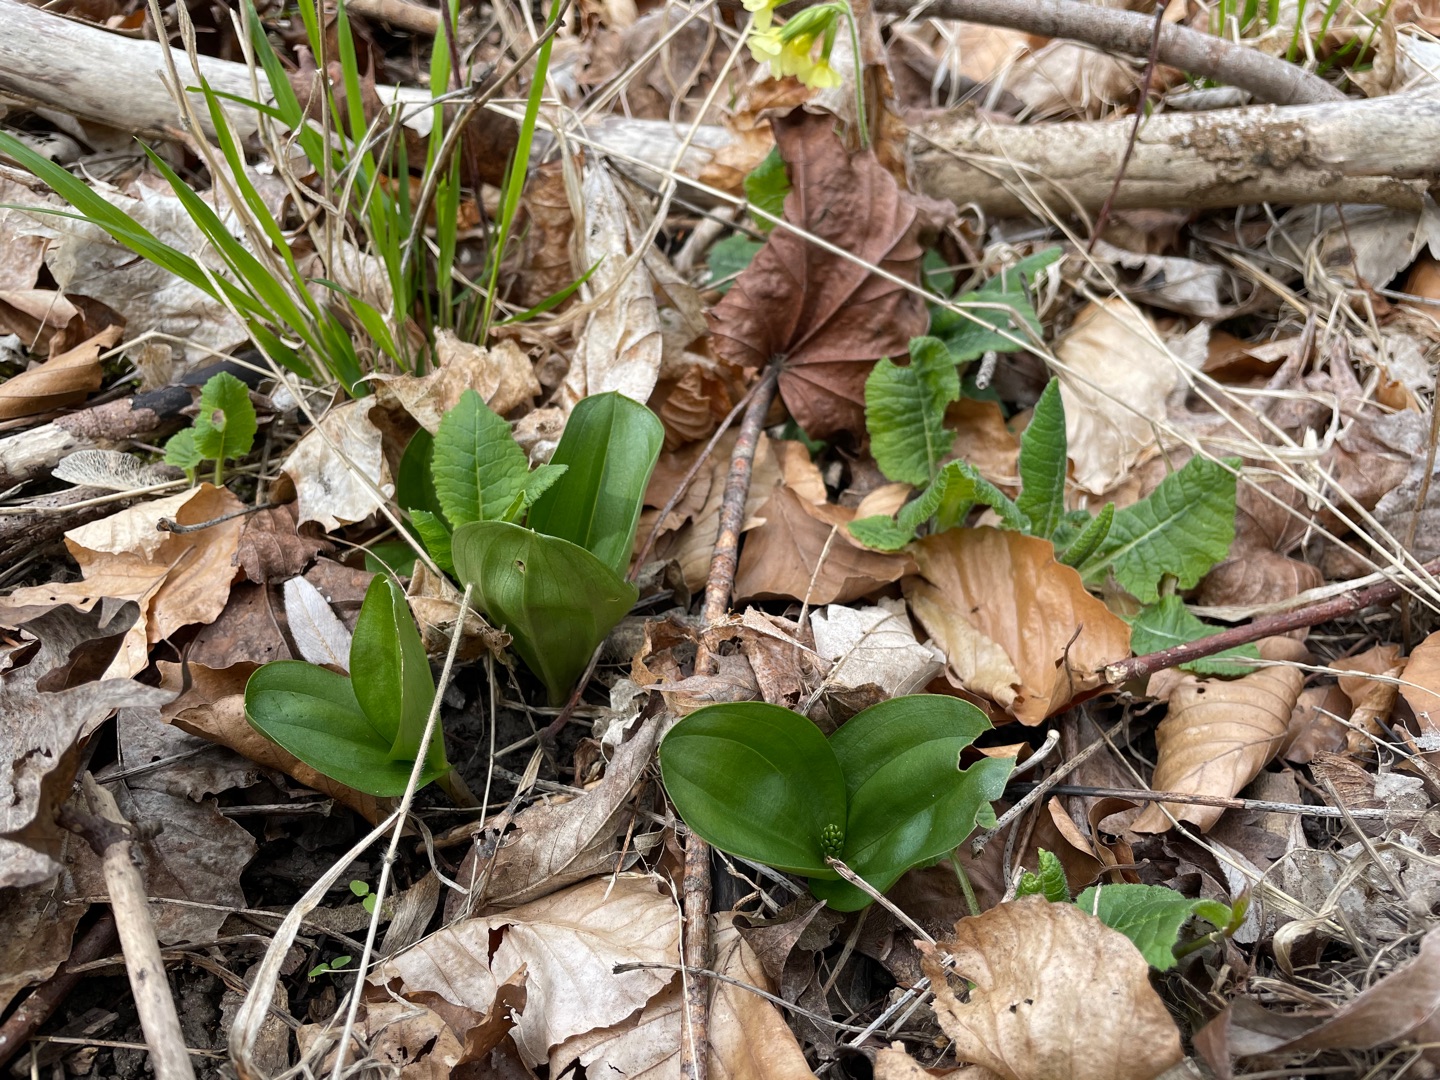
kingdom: Plantae
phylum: Tracheophyta
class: Liliopsida
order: Asparagales
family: Orchidaceae
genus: Neottia
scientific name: Neottia ovata
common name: Ægbladet fliglæbe
